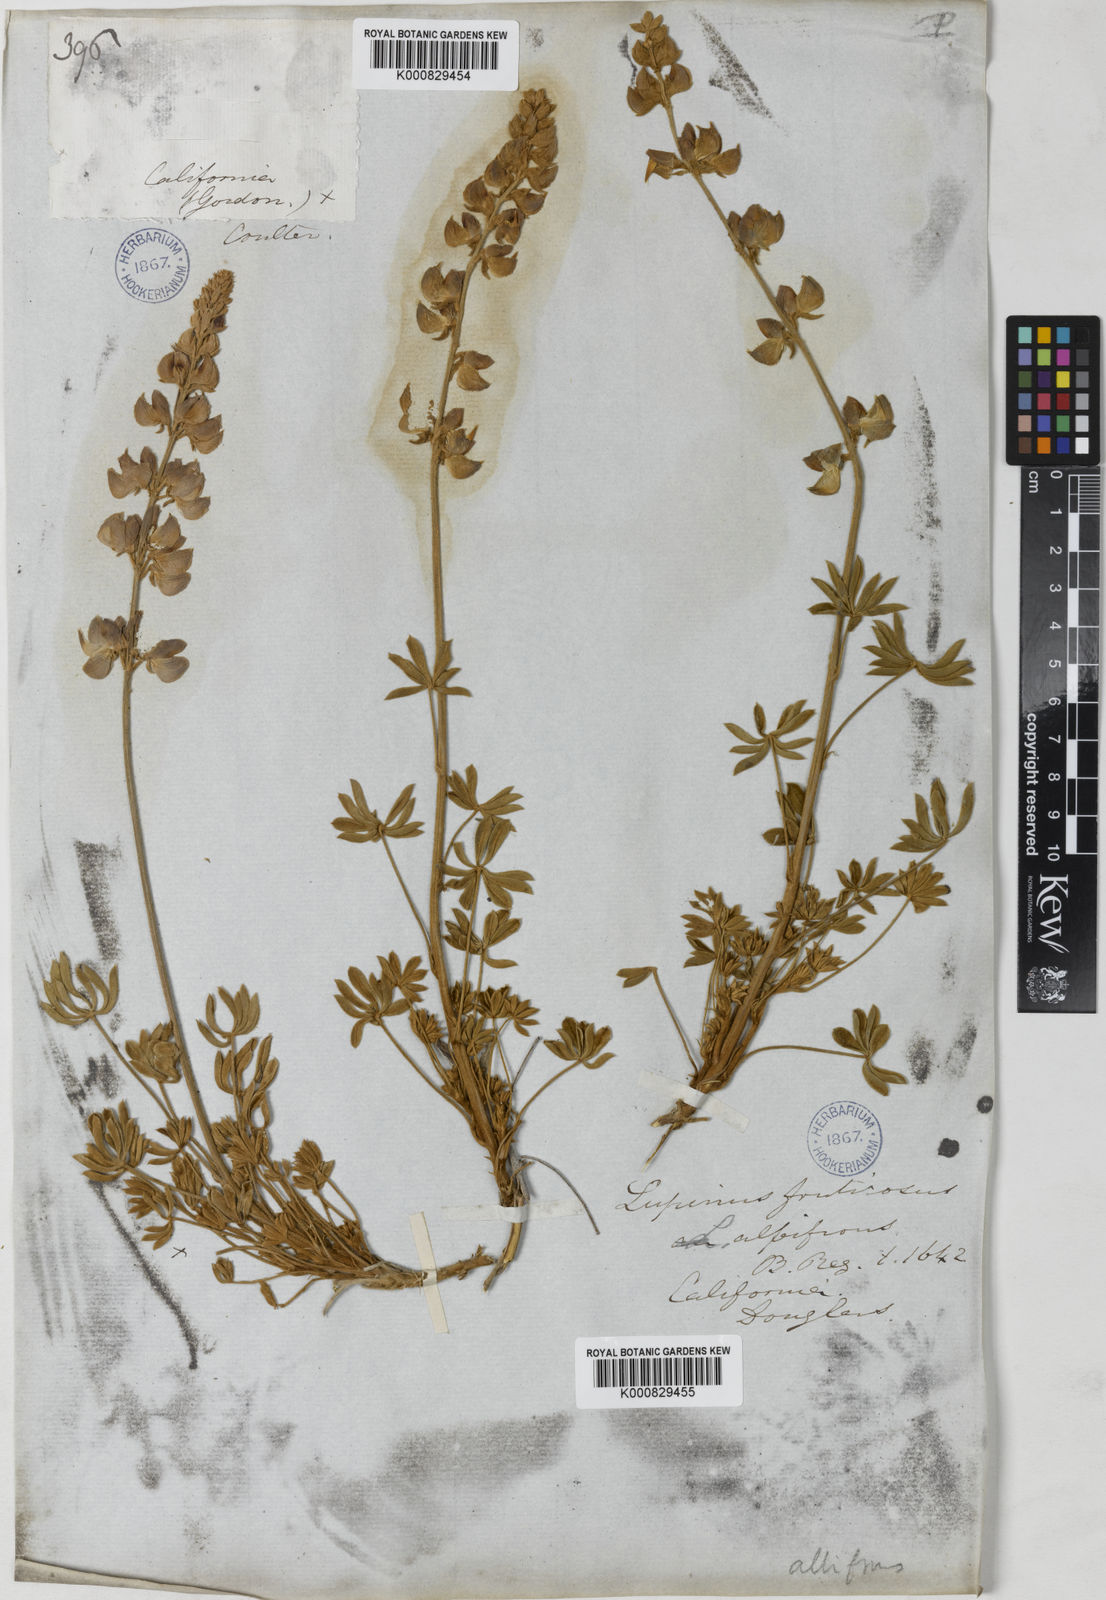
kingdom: Plantae
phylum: Tracheophyta
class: Magnoliopsida
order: Fabales
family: Fabaceae
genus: Lupinus
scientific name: Lupinus albifrons
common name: Foothill lupine
